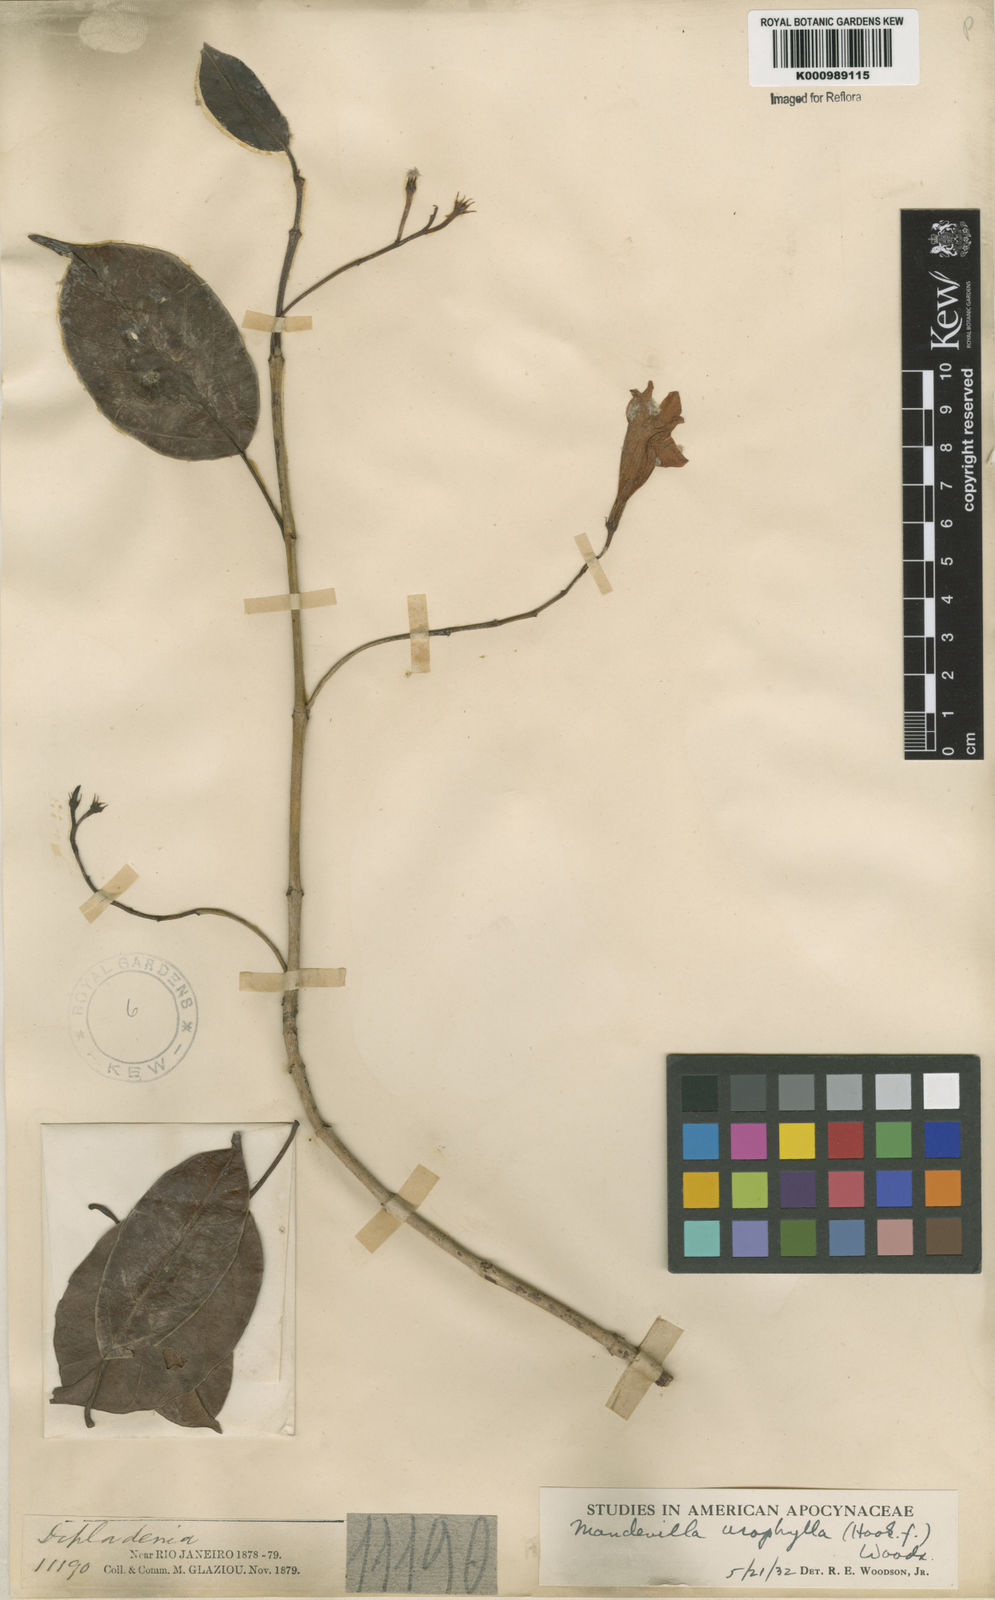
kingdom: Plantae
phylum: Tracheophyta
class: Magnoliopsida
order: Gentianales
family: Apocynaceae
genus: Mandevilla
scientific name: Mandevilla urophylla
